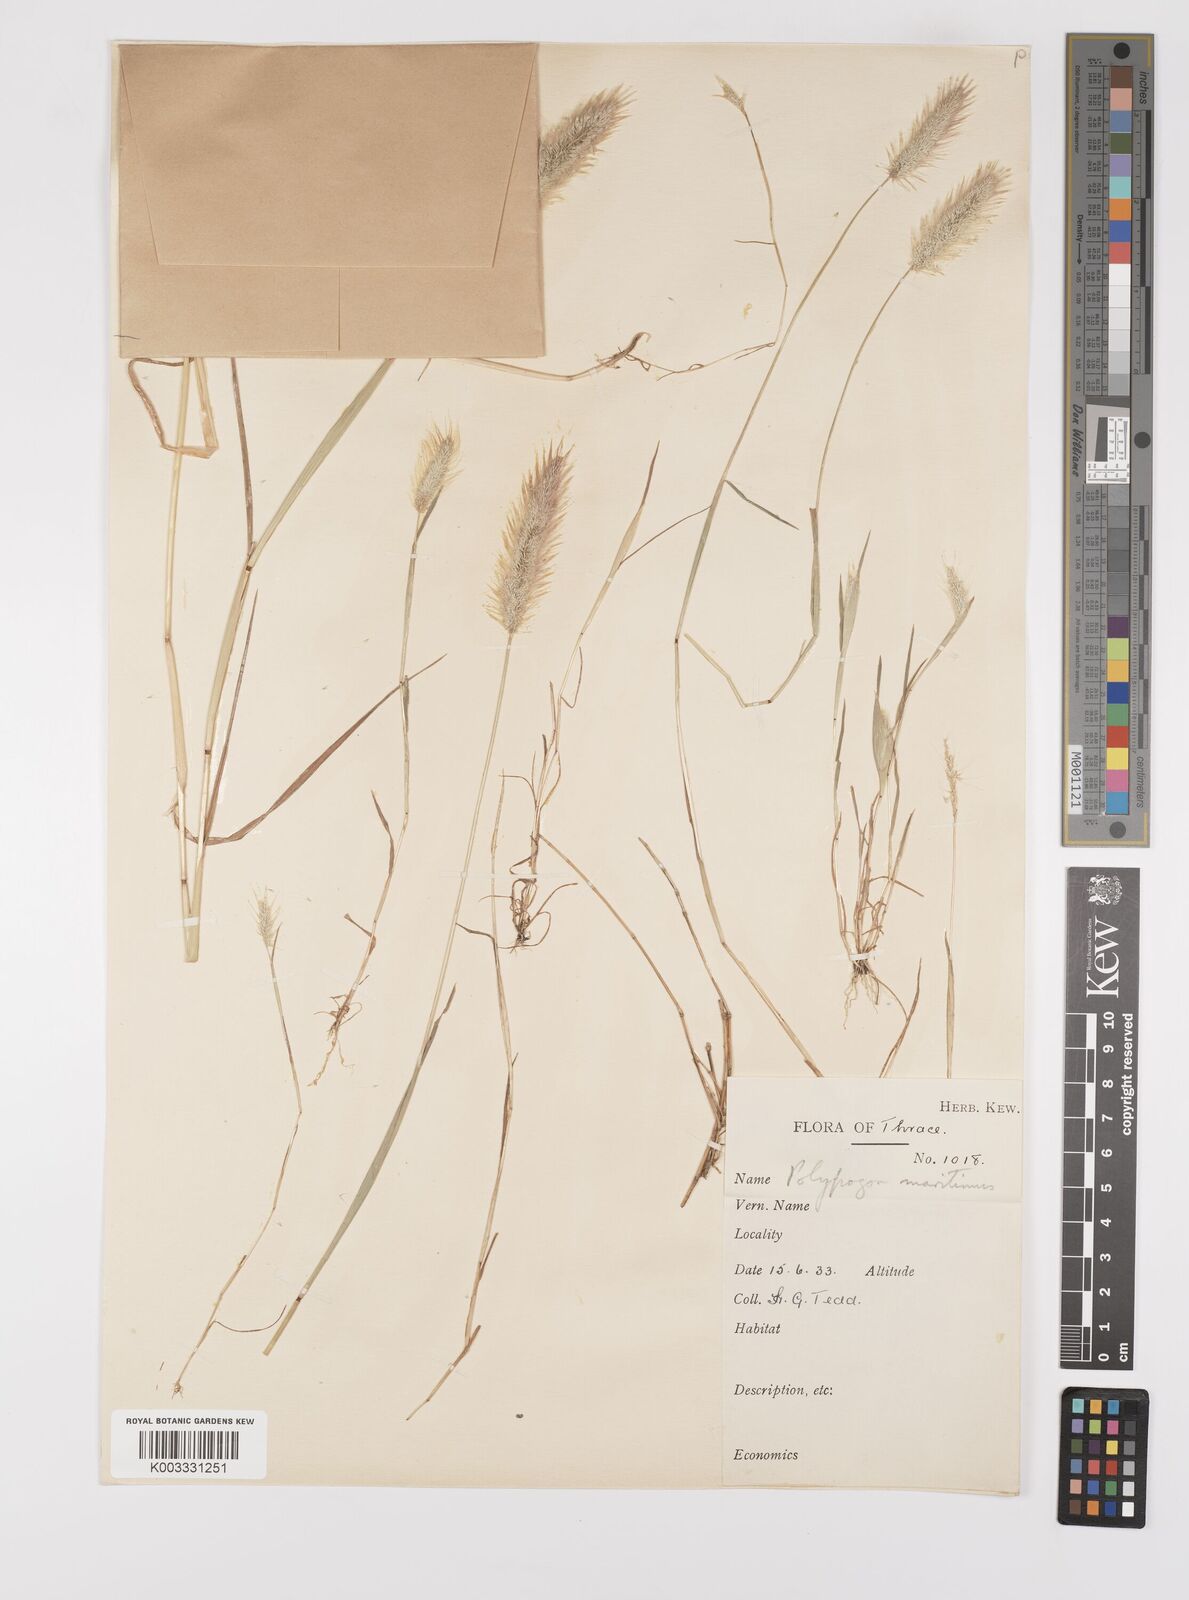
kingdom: Plantae
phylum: Tracheophyta
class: Liliopsida
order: Poales
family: Poaceae
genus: Polypogon
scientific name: Polypogon maritimus
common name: Mediterranean rabbitsfoot grass
